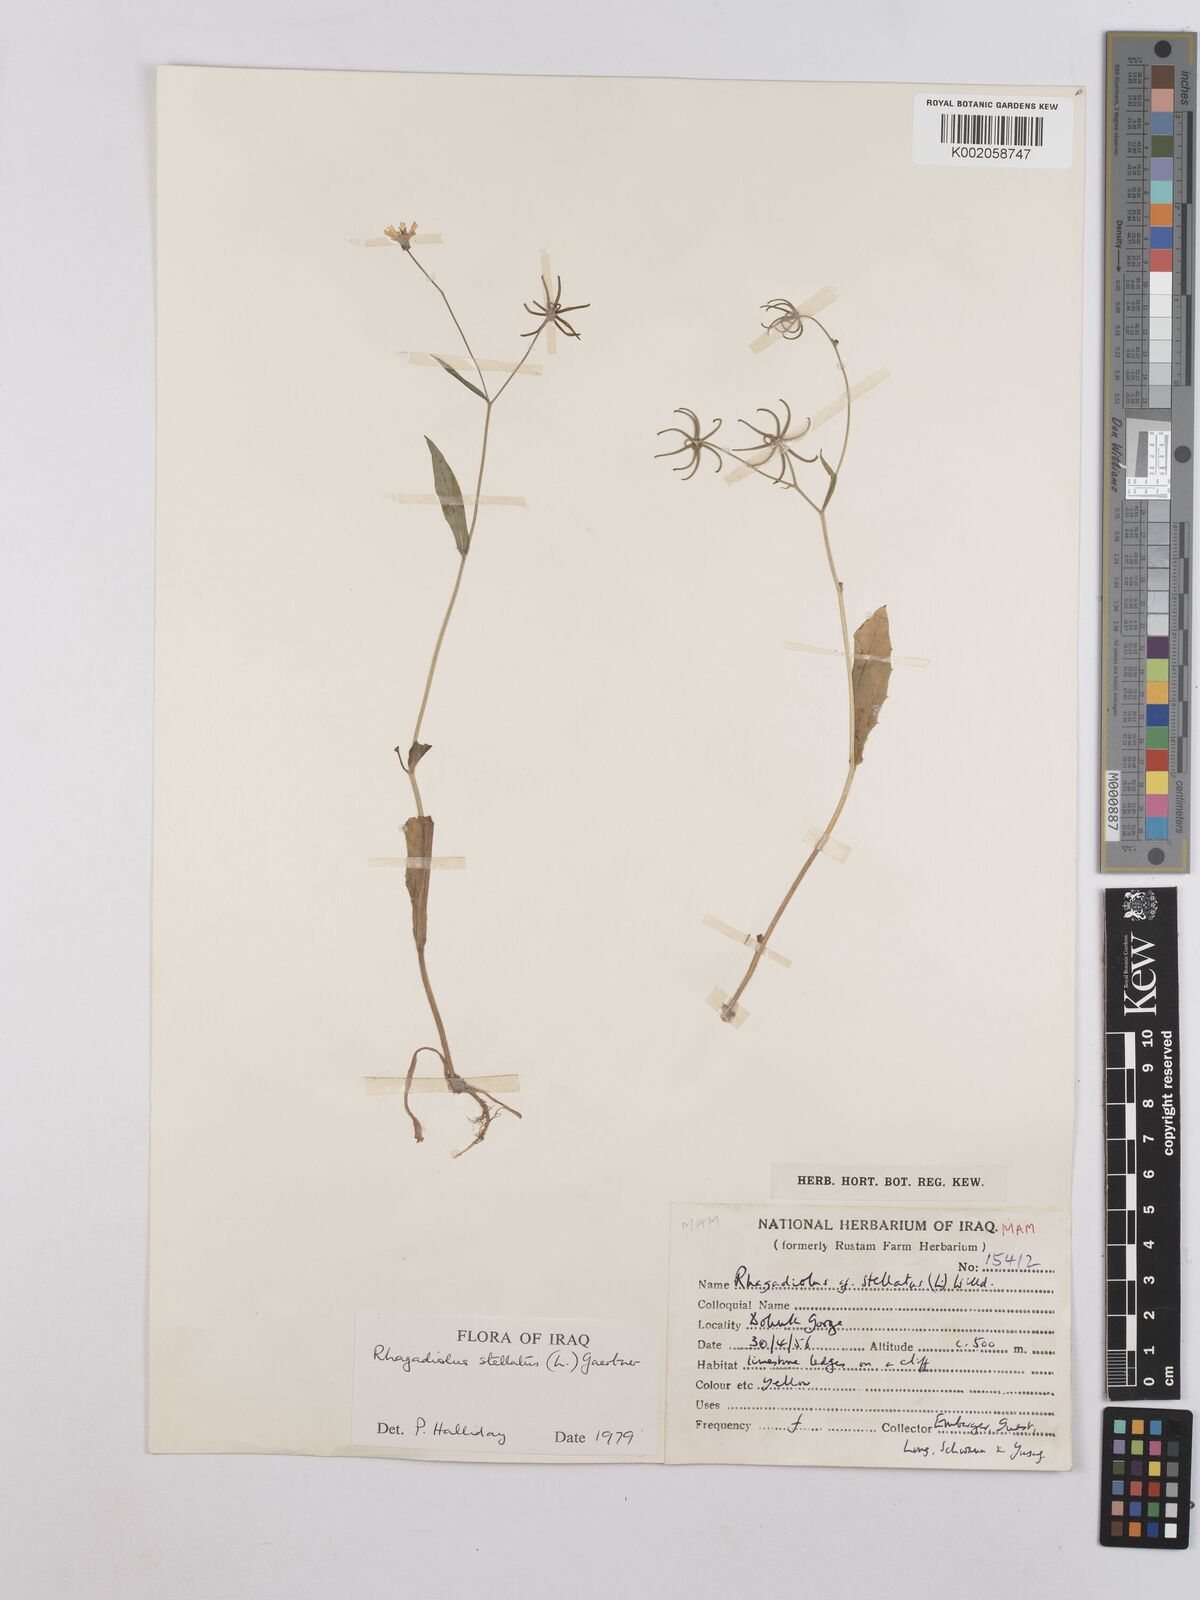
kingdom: Plantae
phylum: Tracheophyta
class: Magnoliopsida
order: Asterales
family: Asteraceae
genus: Rhagadiolus
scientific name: Rhagadiolus stellatus
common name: Star hawkbit
